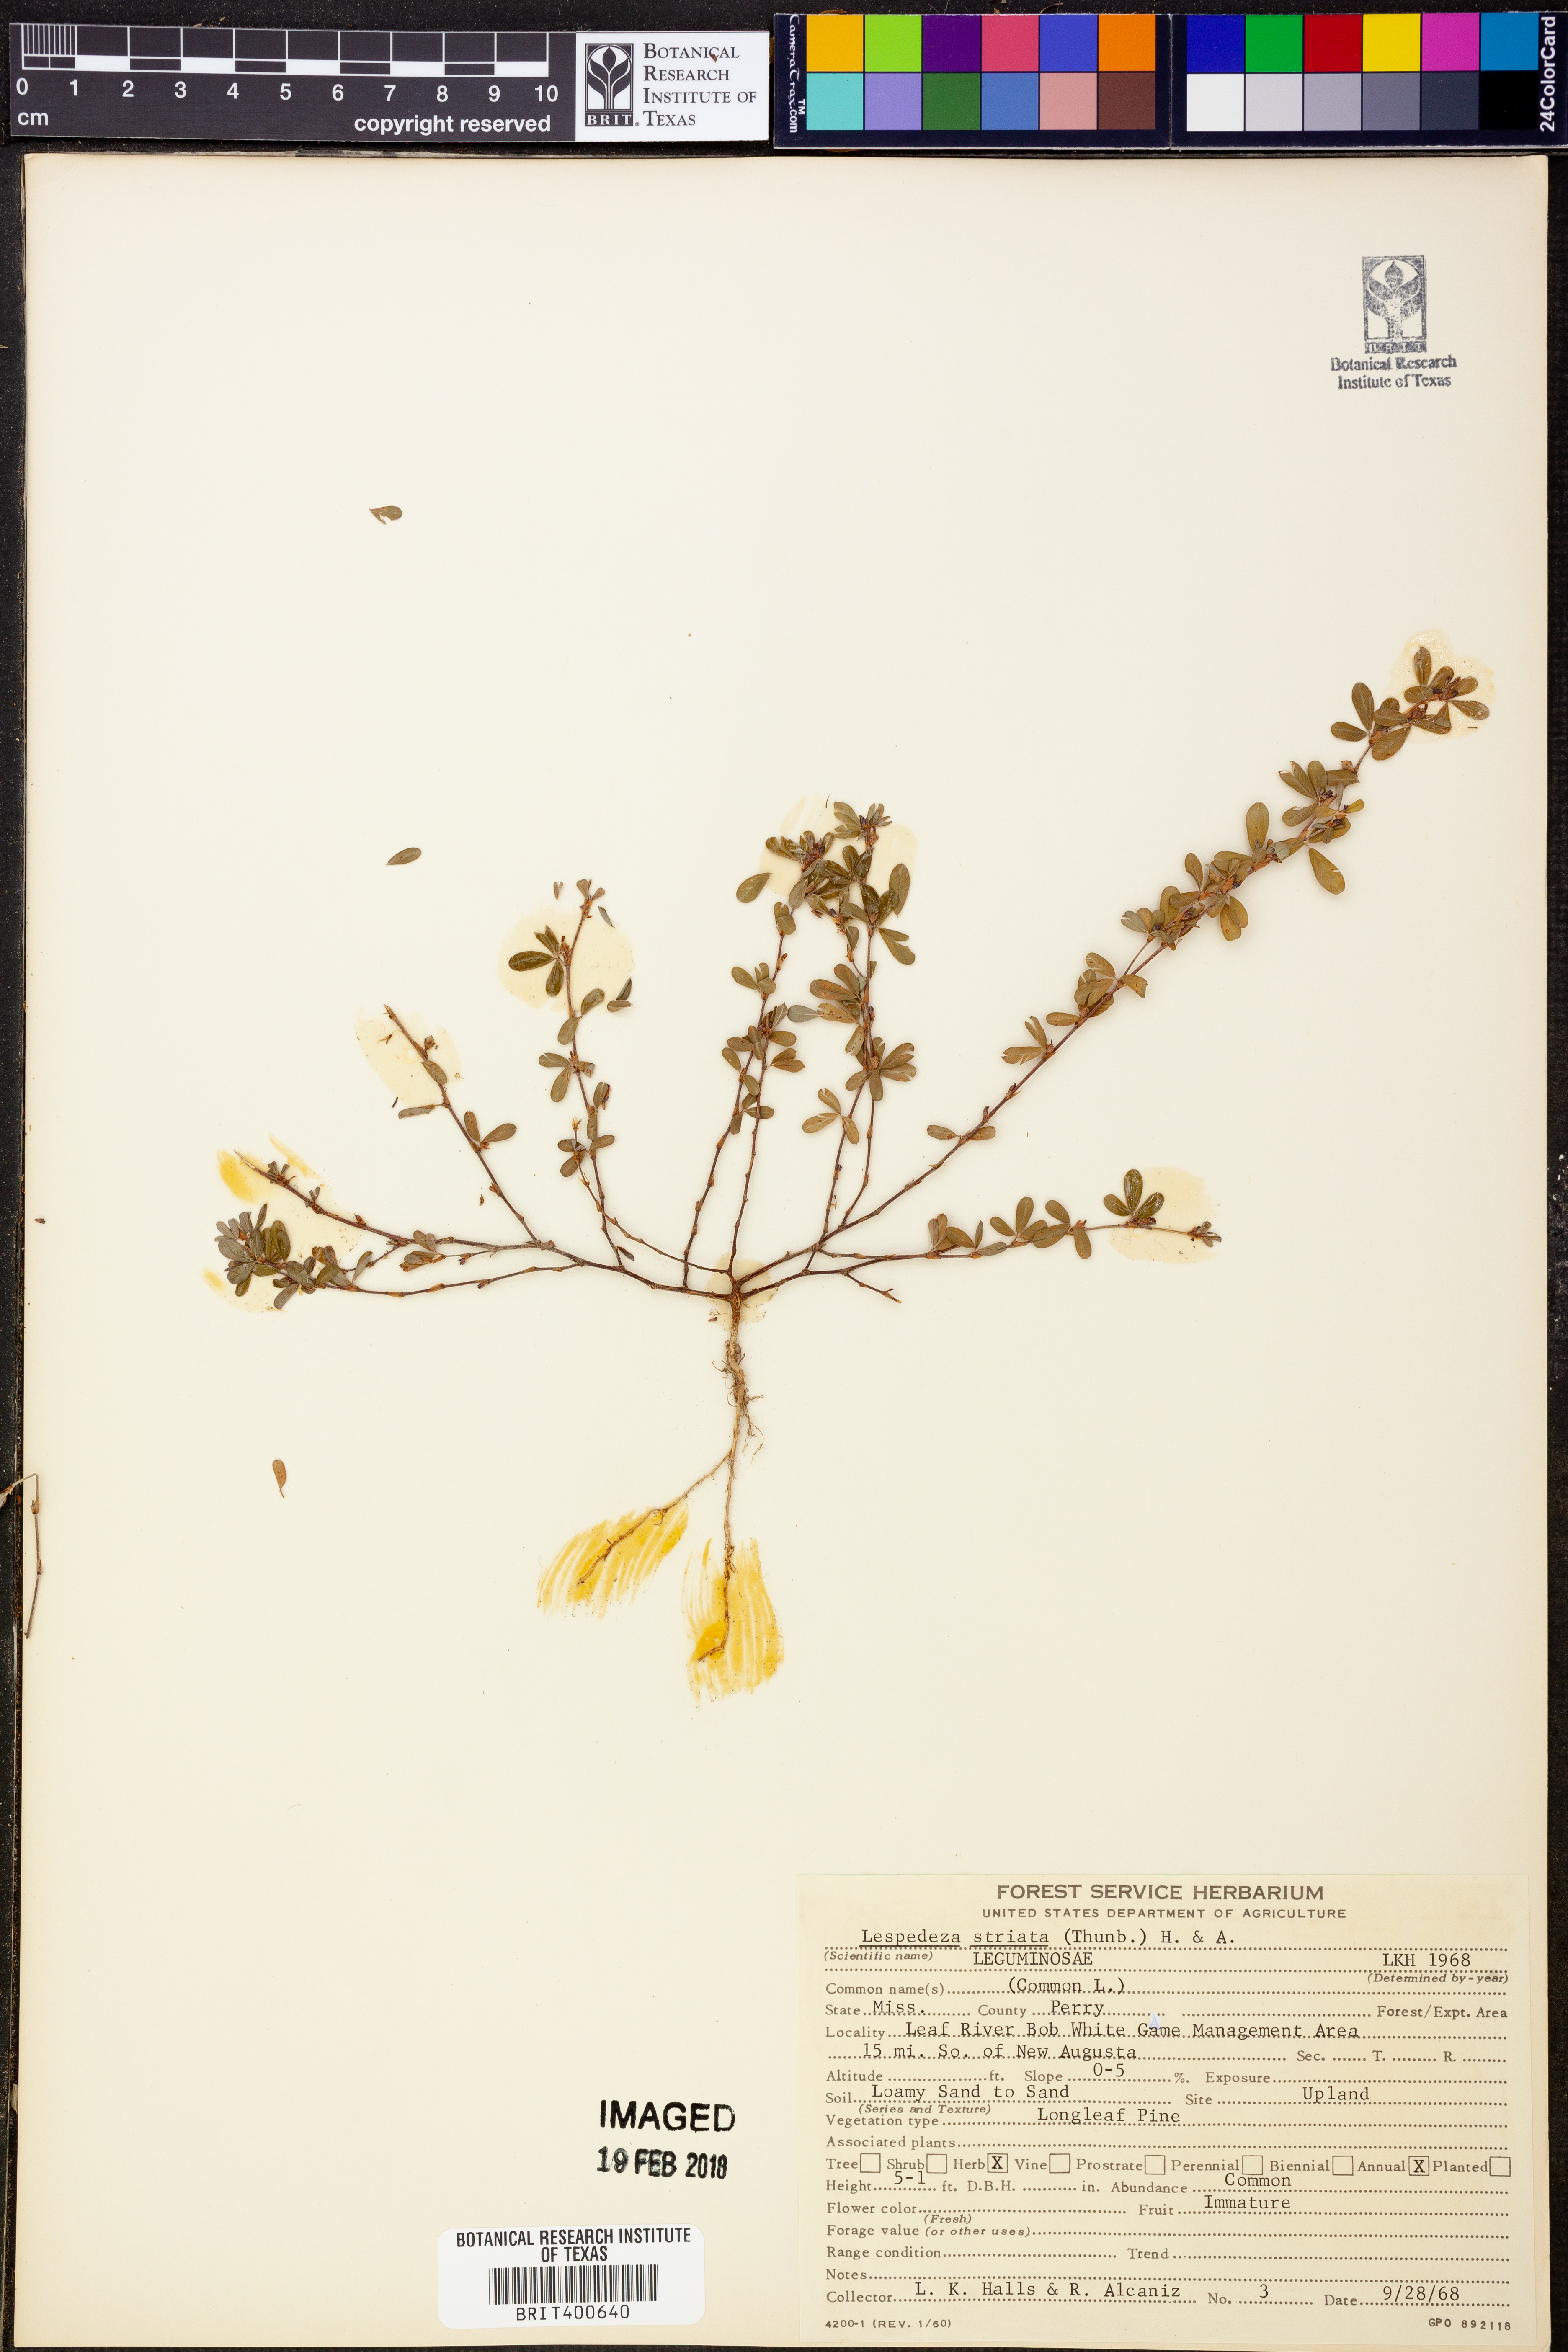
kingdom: Plantae
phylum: Tracheophyta
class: Magnoliopsida
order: Fabales
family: Fabaceae
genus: Kummerowia
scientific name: Kummerowia striata
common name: Japanese clover
